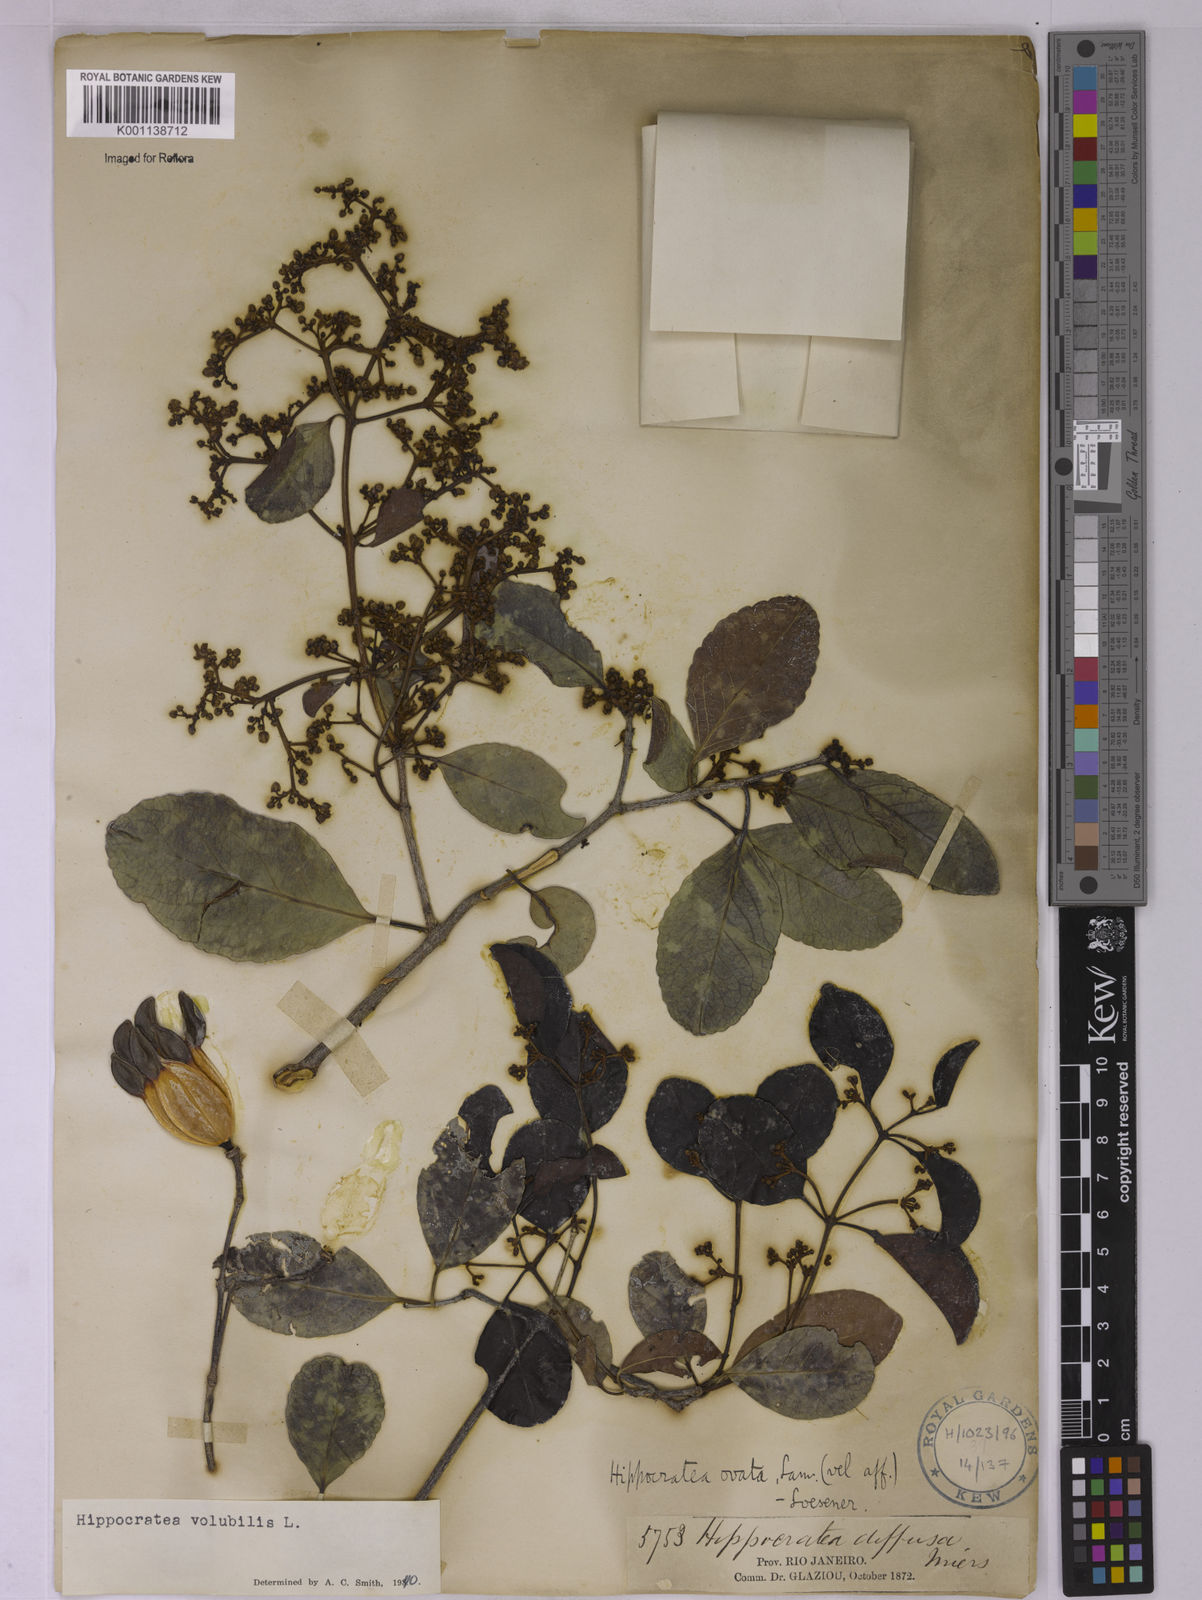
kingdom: Plantae
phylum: Tracheophyta
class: Magnoliopsida
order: Celastrales
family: Celastraceae
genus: Hippocratea
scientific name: Hippocratea volubilis
